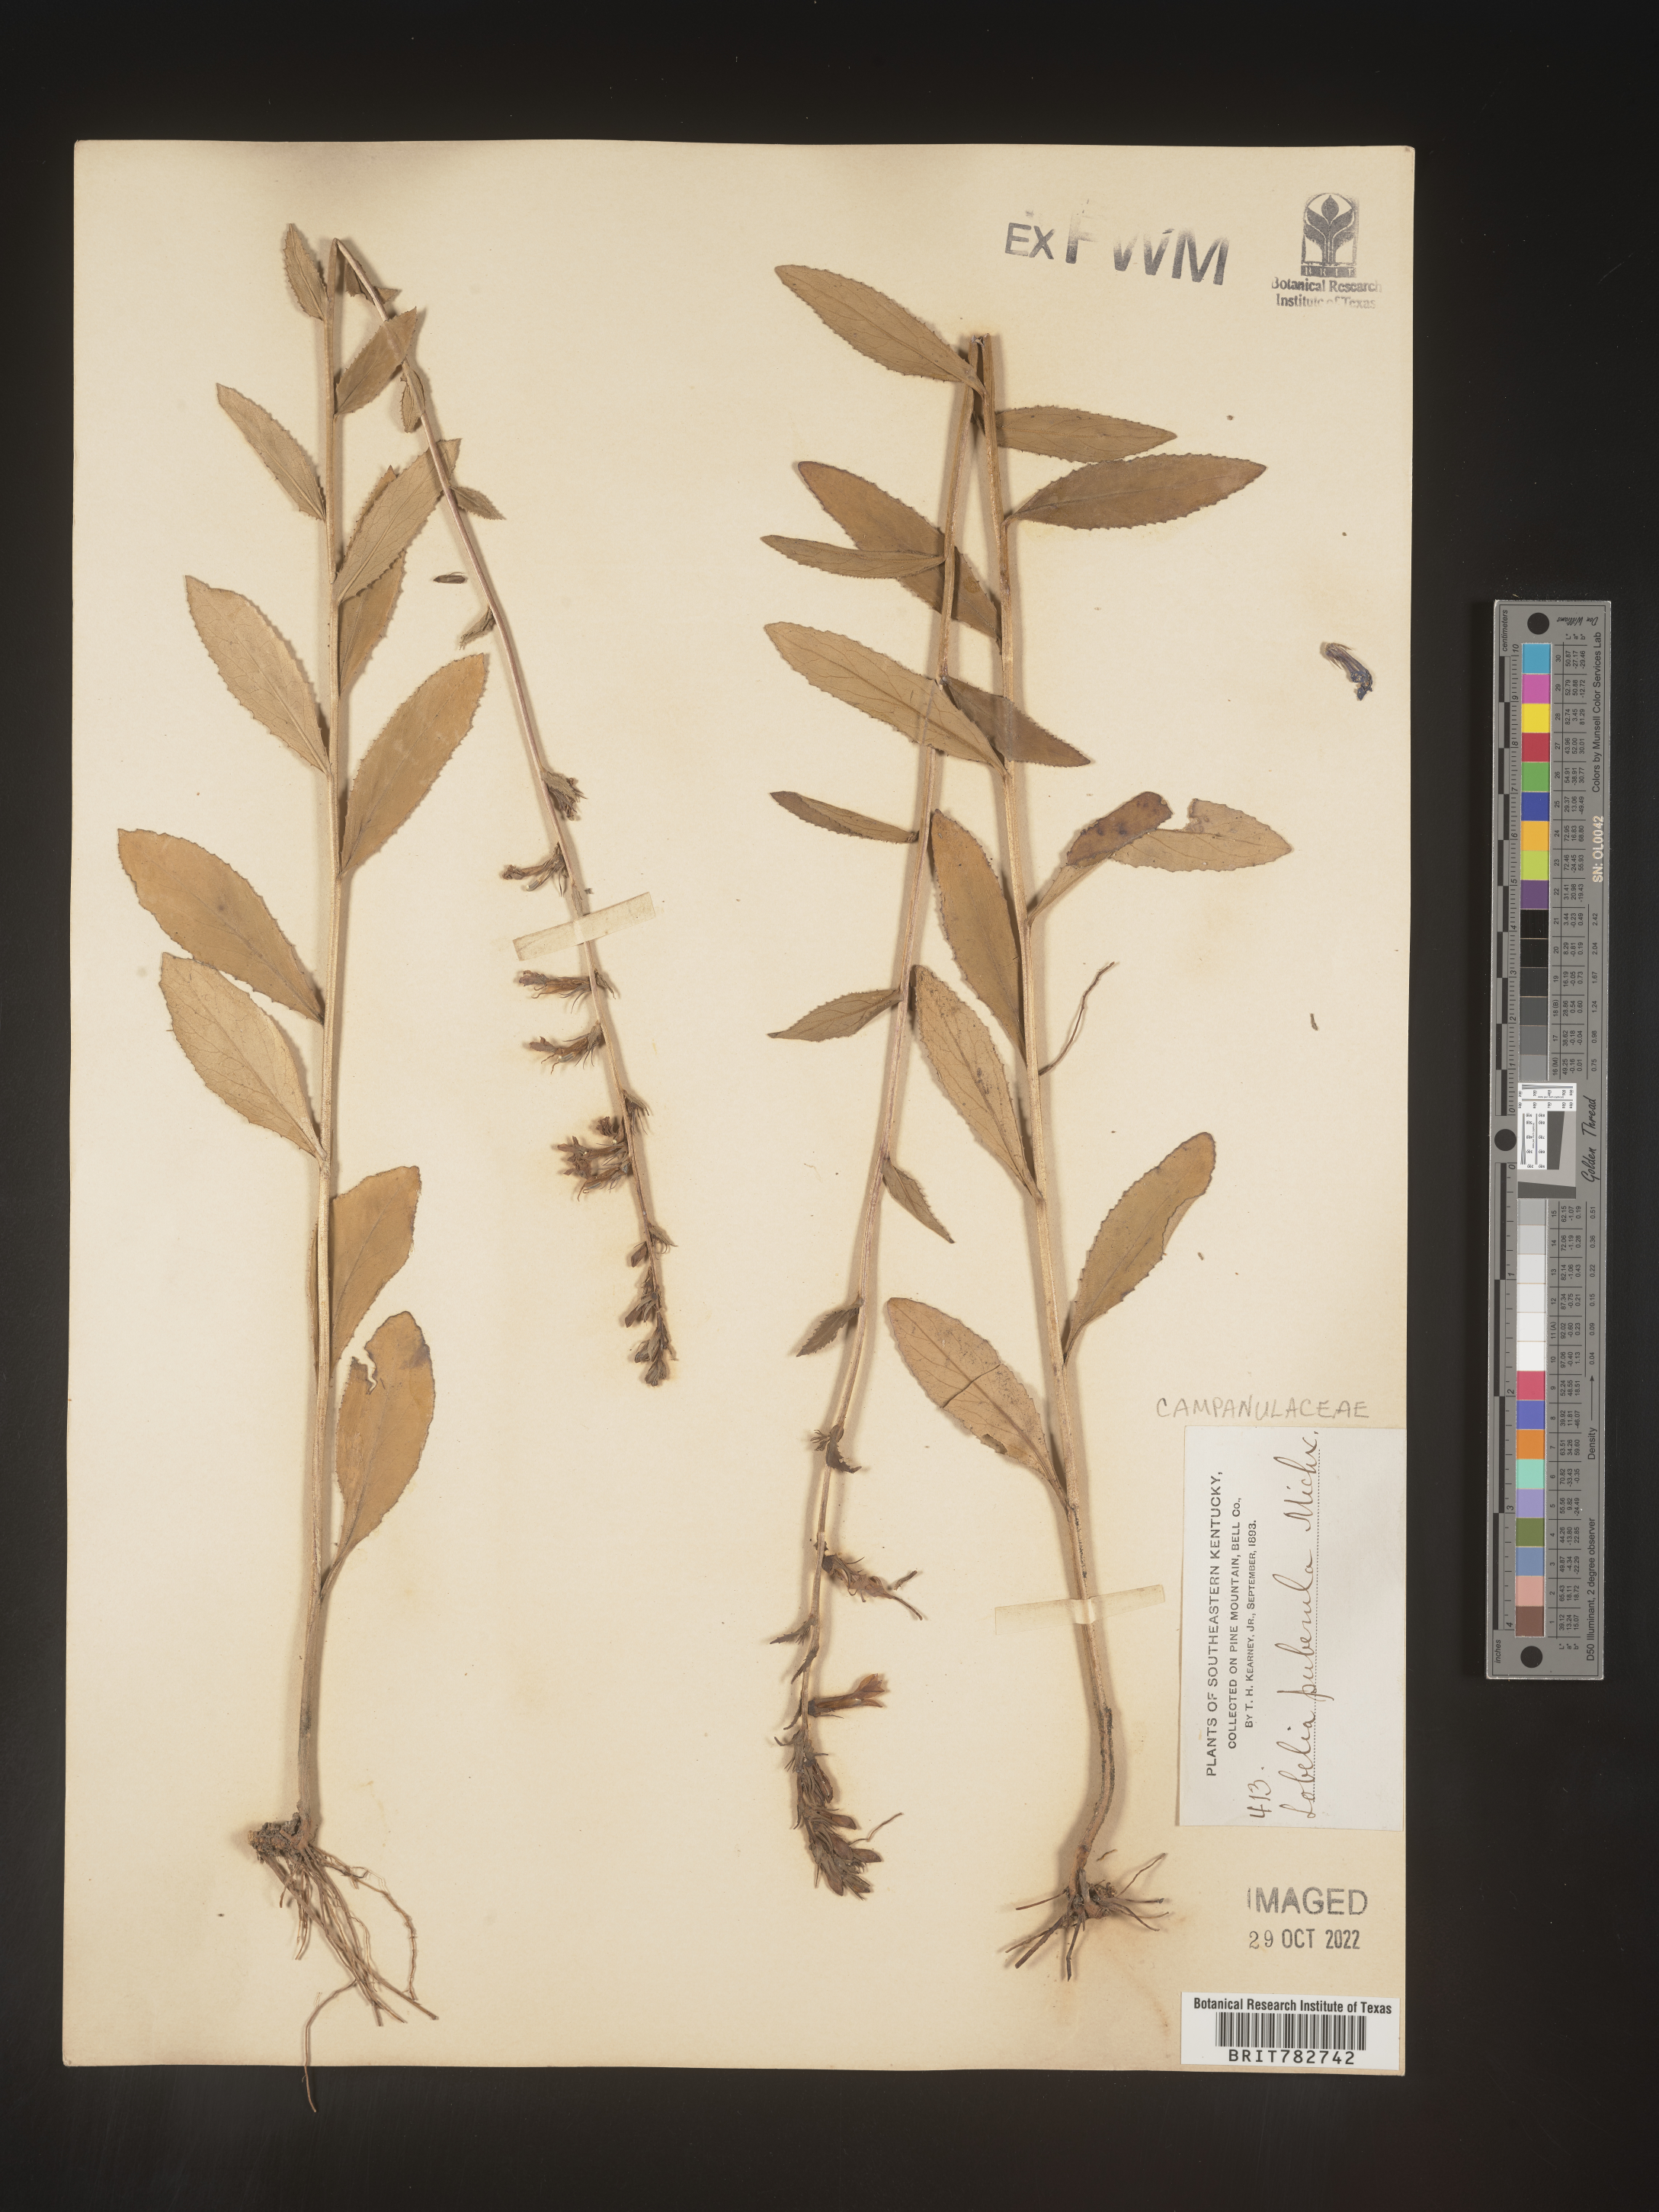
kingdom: Plantae
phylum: Tracheophyta
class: Magnoliopsida
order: Asterales
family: Campanulaceae
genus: Lobelia
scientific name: Lobelia puberula
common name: Purple dewdrop
